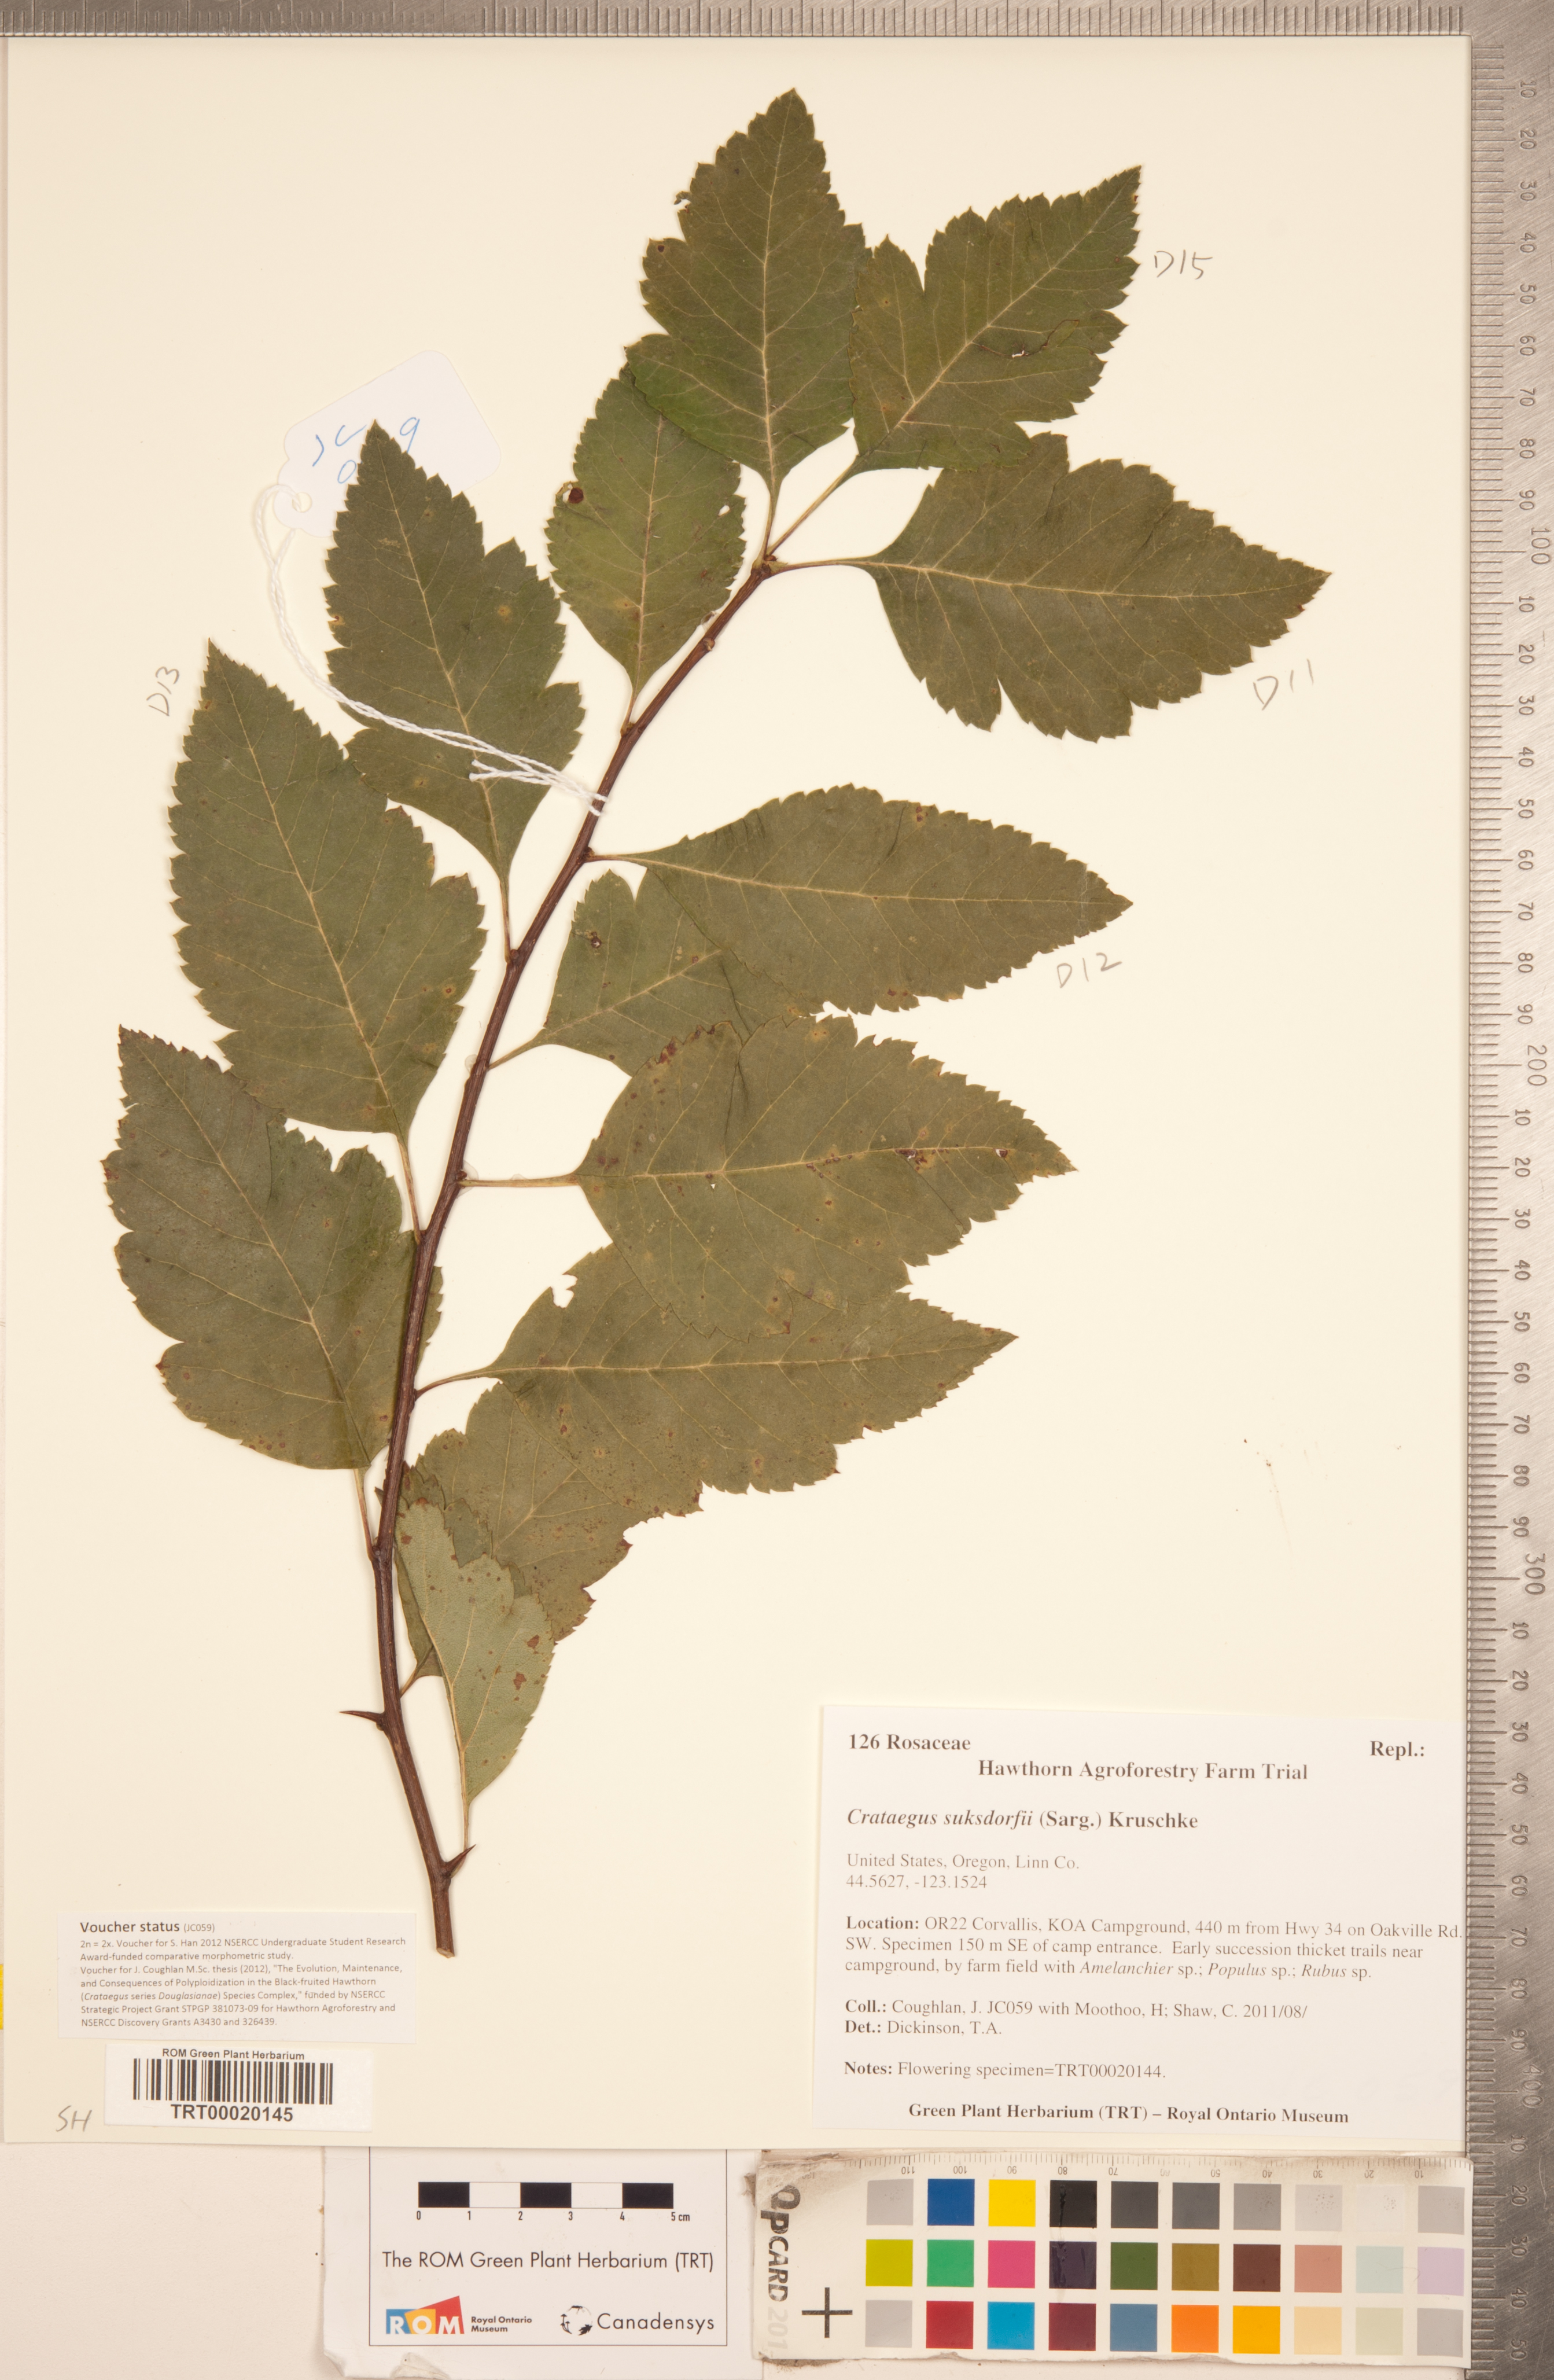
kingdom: Plantae
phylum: Tracheophyta
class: Magnoliopsida
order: Rosales
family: Rosaceae
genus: Crataegus
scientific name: Crataegus gaylussacia
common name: Huckleberry hawthorn
